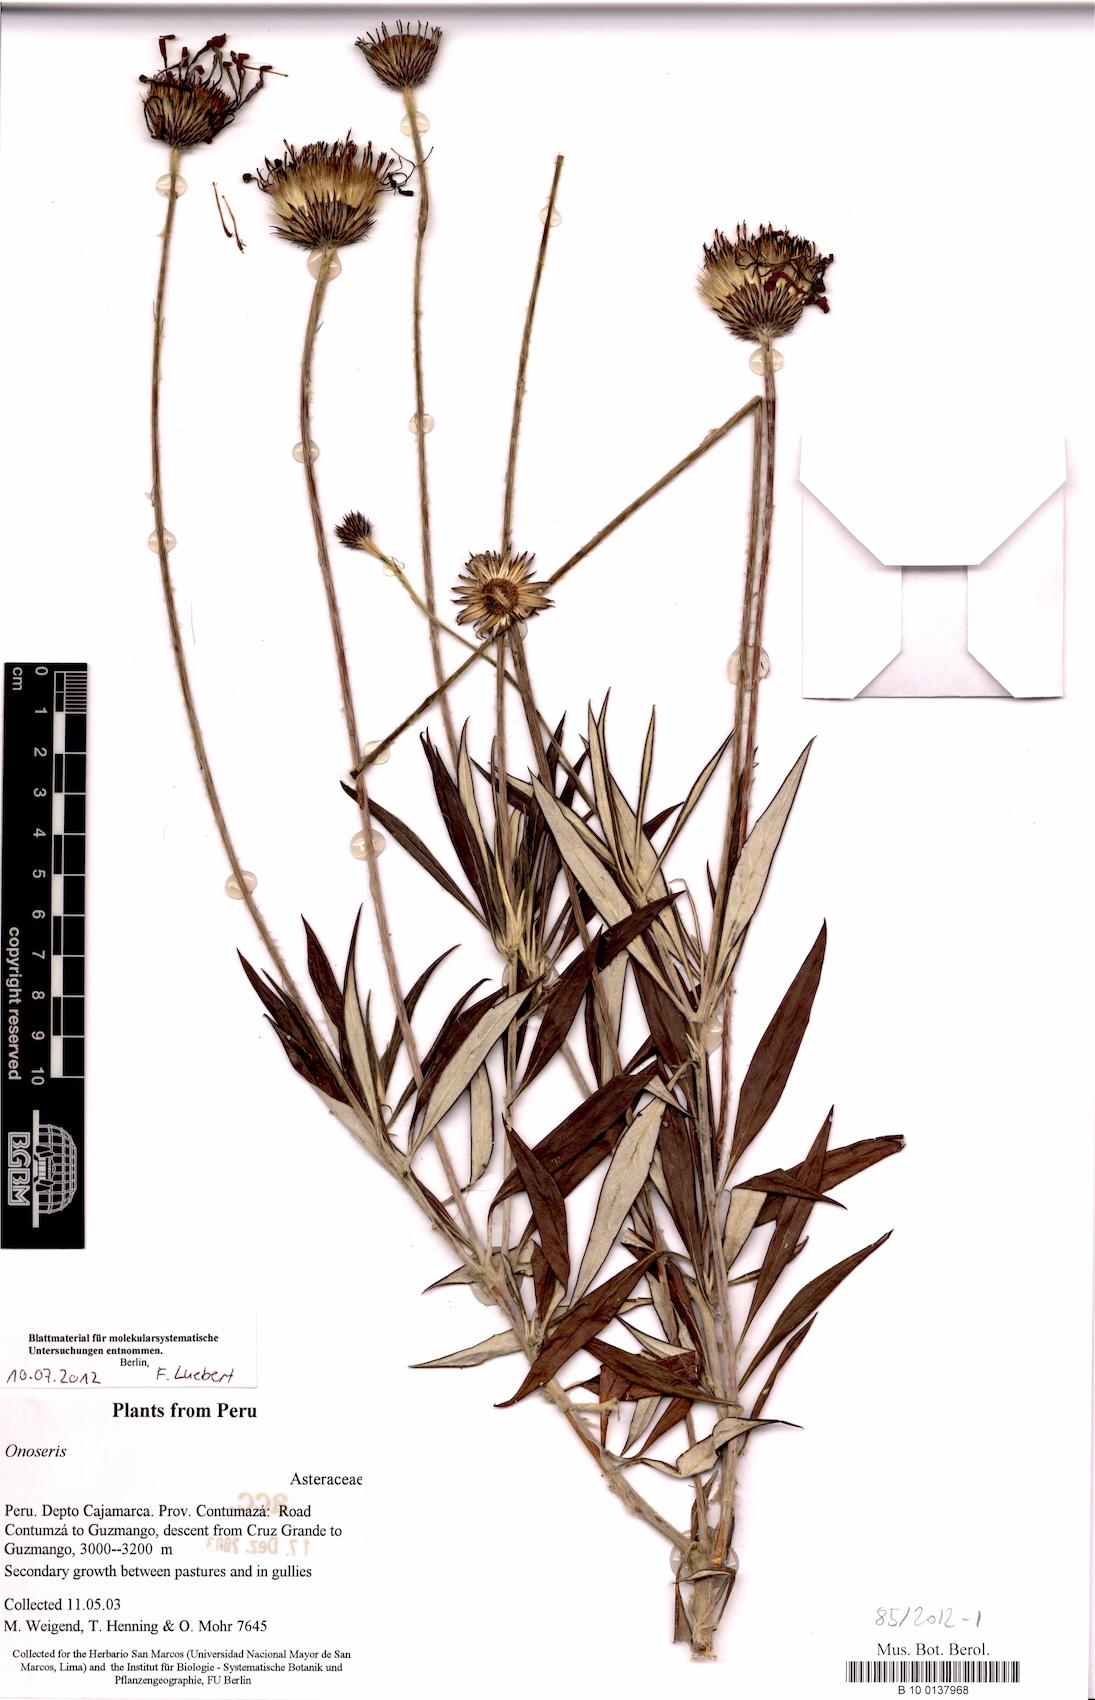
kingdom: Plantae
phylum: Tracheophyta
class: Magnoliopsida
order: Asterales
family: Asteraceae
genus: Onoseris
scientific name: Onoseris salicifolia
